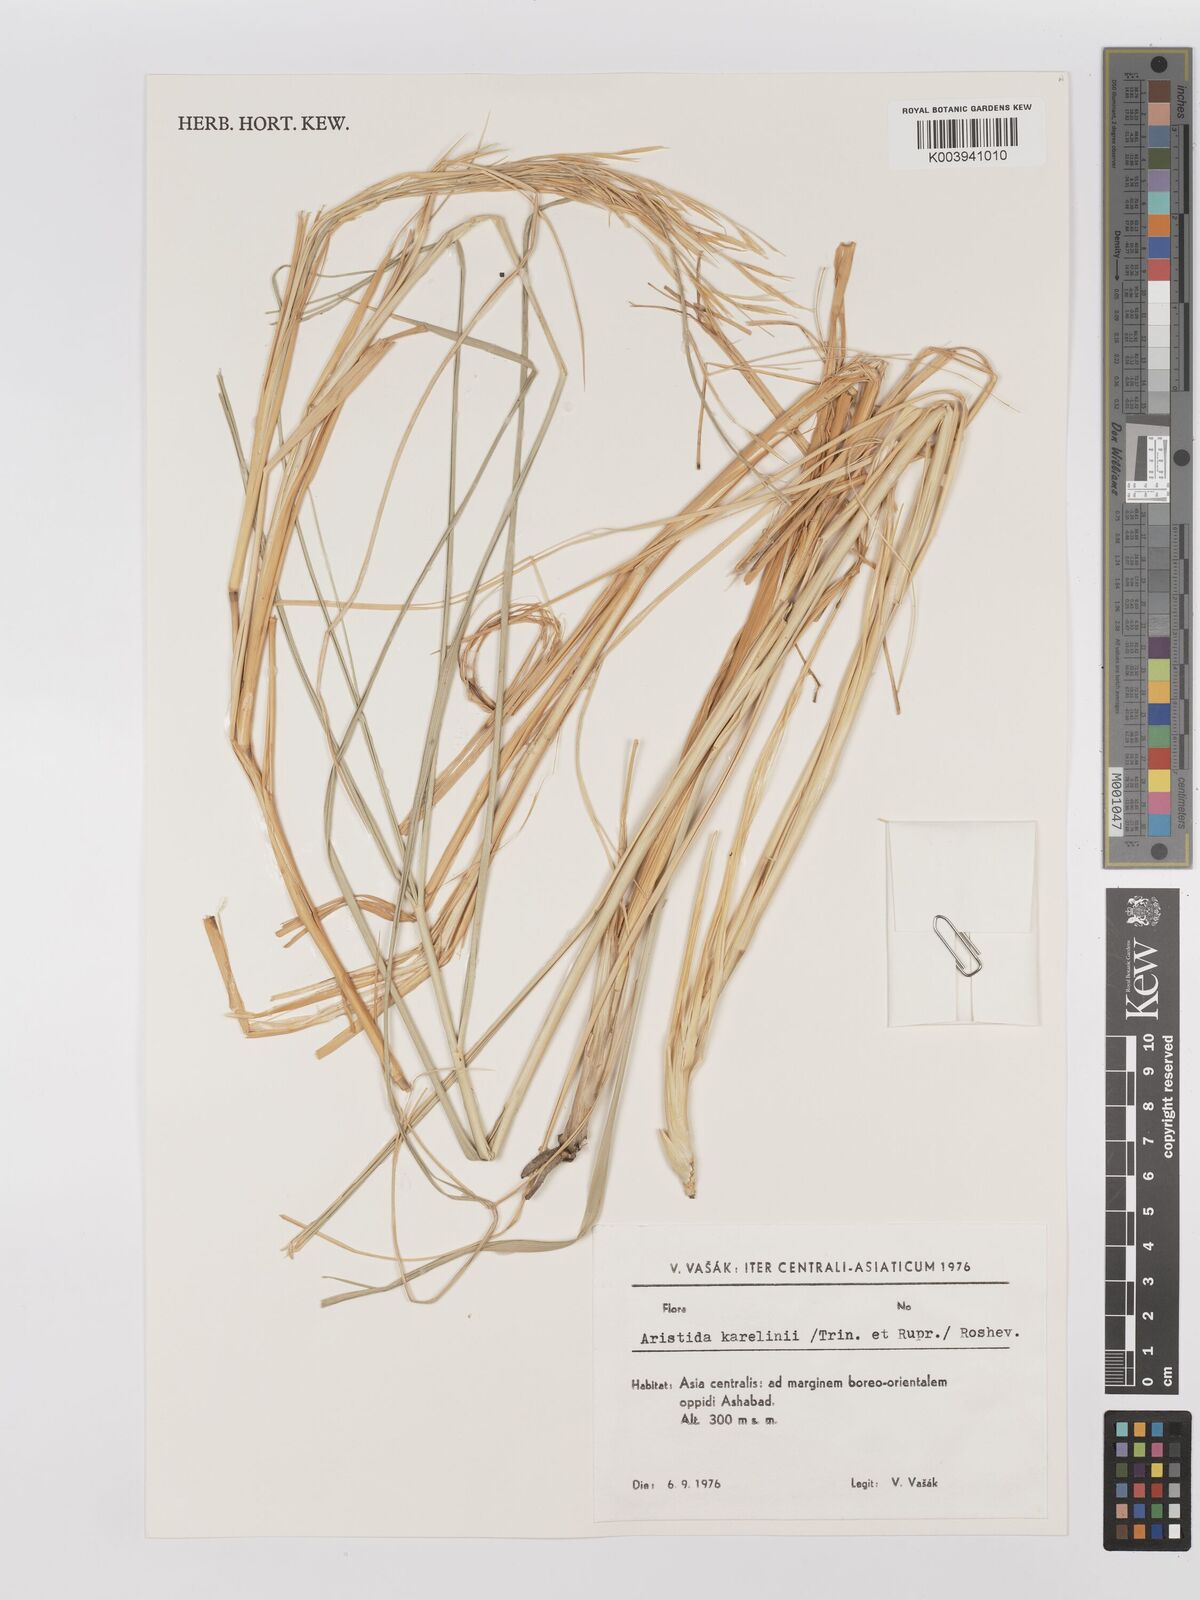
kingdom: Plantae
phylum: Tracheophyta
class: Liliopsida
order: Poales
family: Poaceae
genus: Stipagrostis
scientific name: Stipagrostis karelinii
